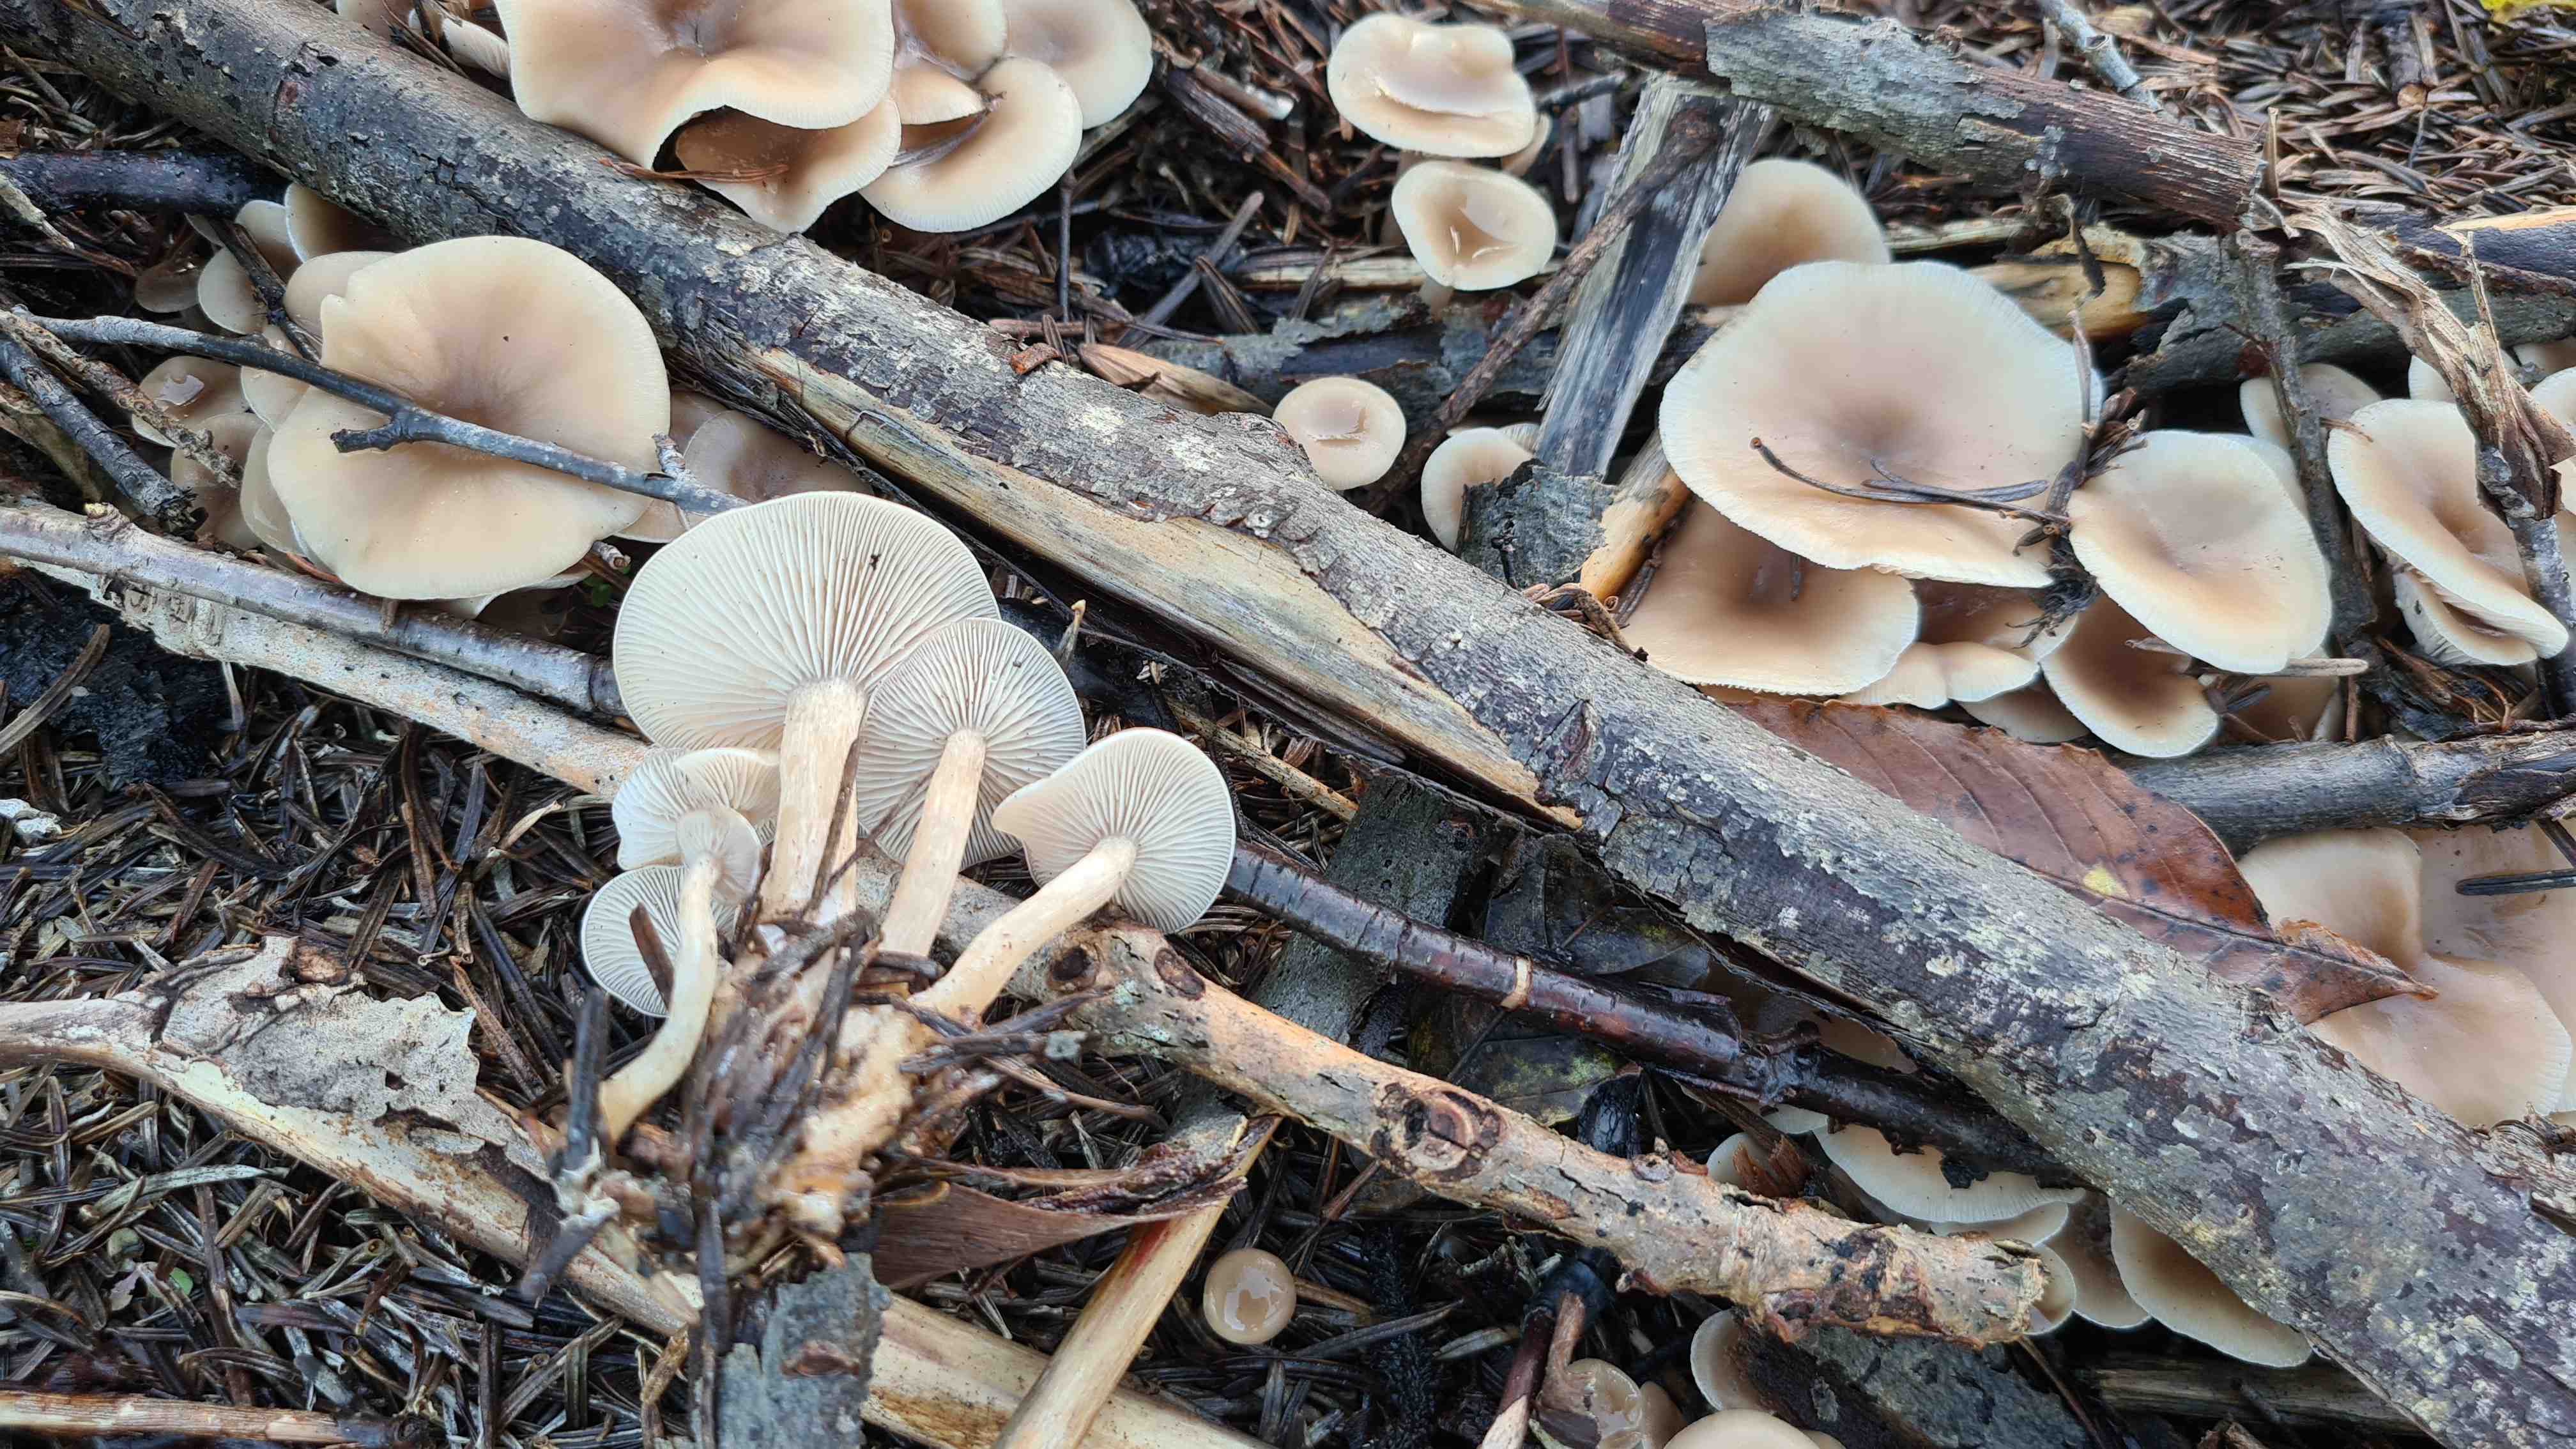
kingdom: Fungi
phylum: Basidiomycota
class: Agaricomycetes
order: Agaricales
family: Tricholomataceae
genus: Clitocybe
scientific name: Clitocybe fragrans
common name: vellugtende tragthat
